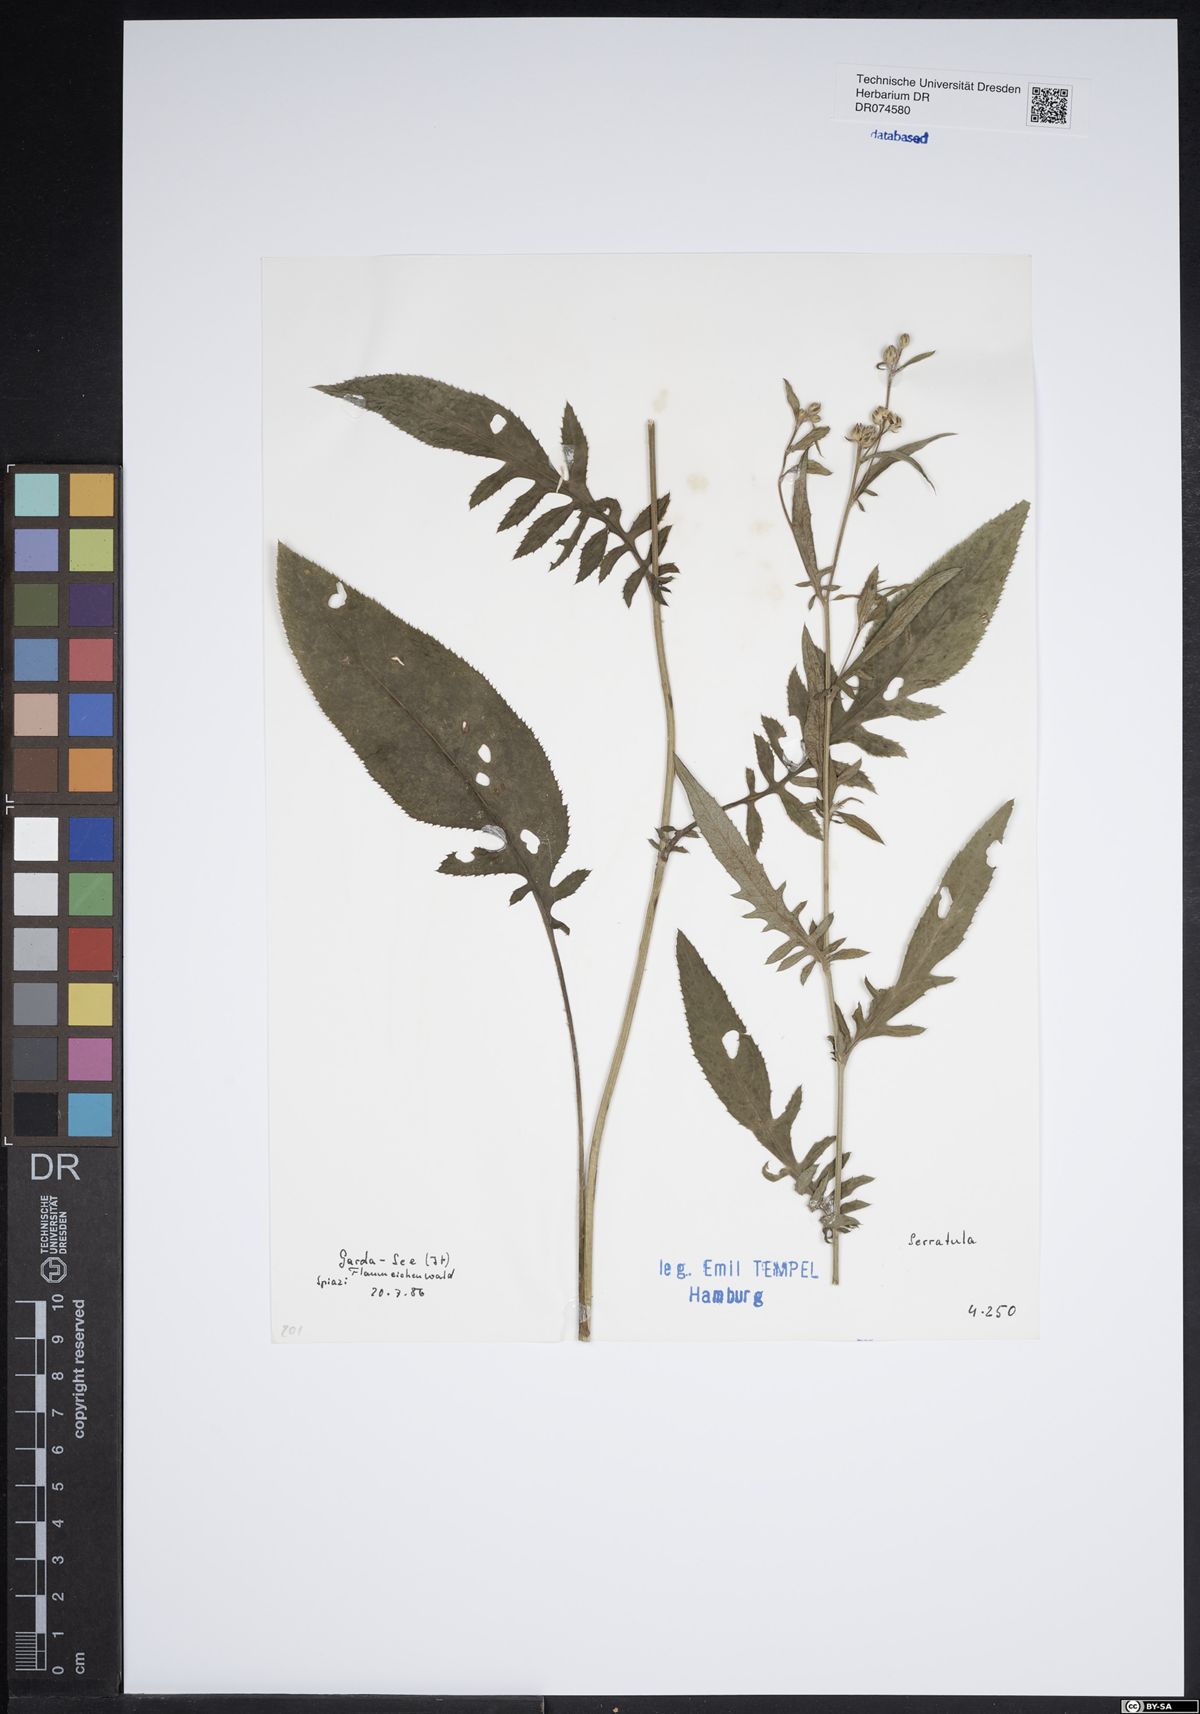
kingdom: Plantae
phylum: Tracheophyta
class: Magnoliopsida
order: Asterales
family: Asteraceae
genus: Serratula
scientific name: Serratula
